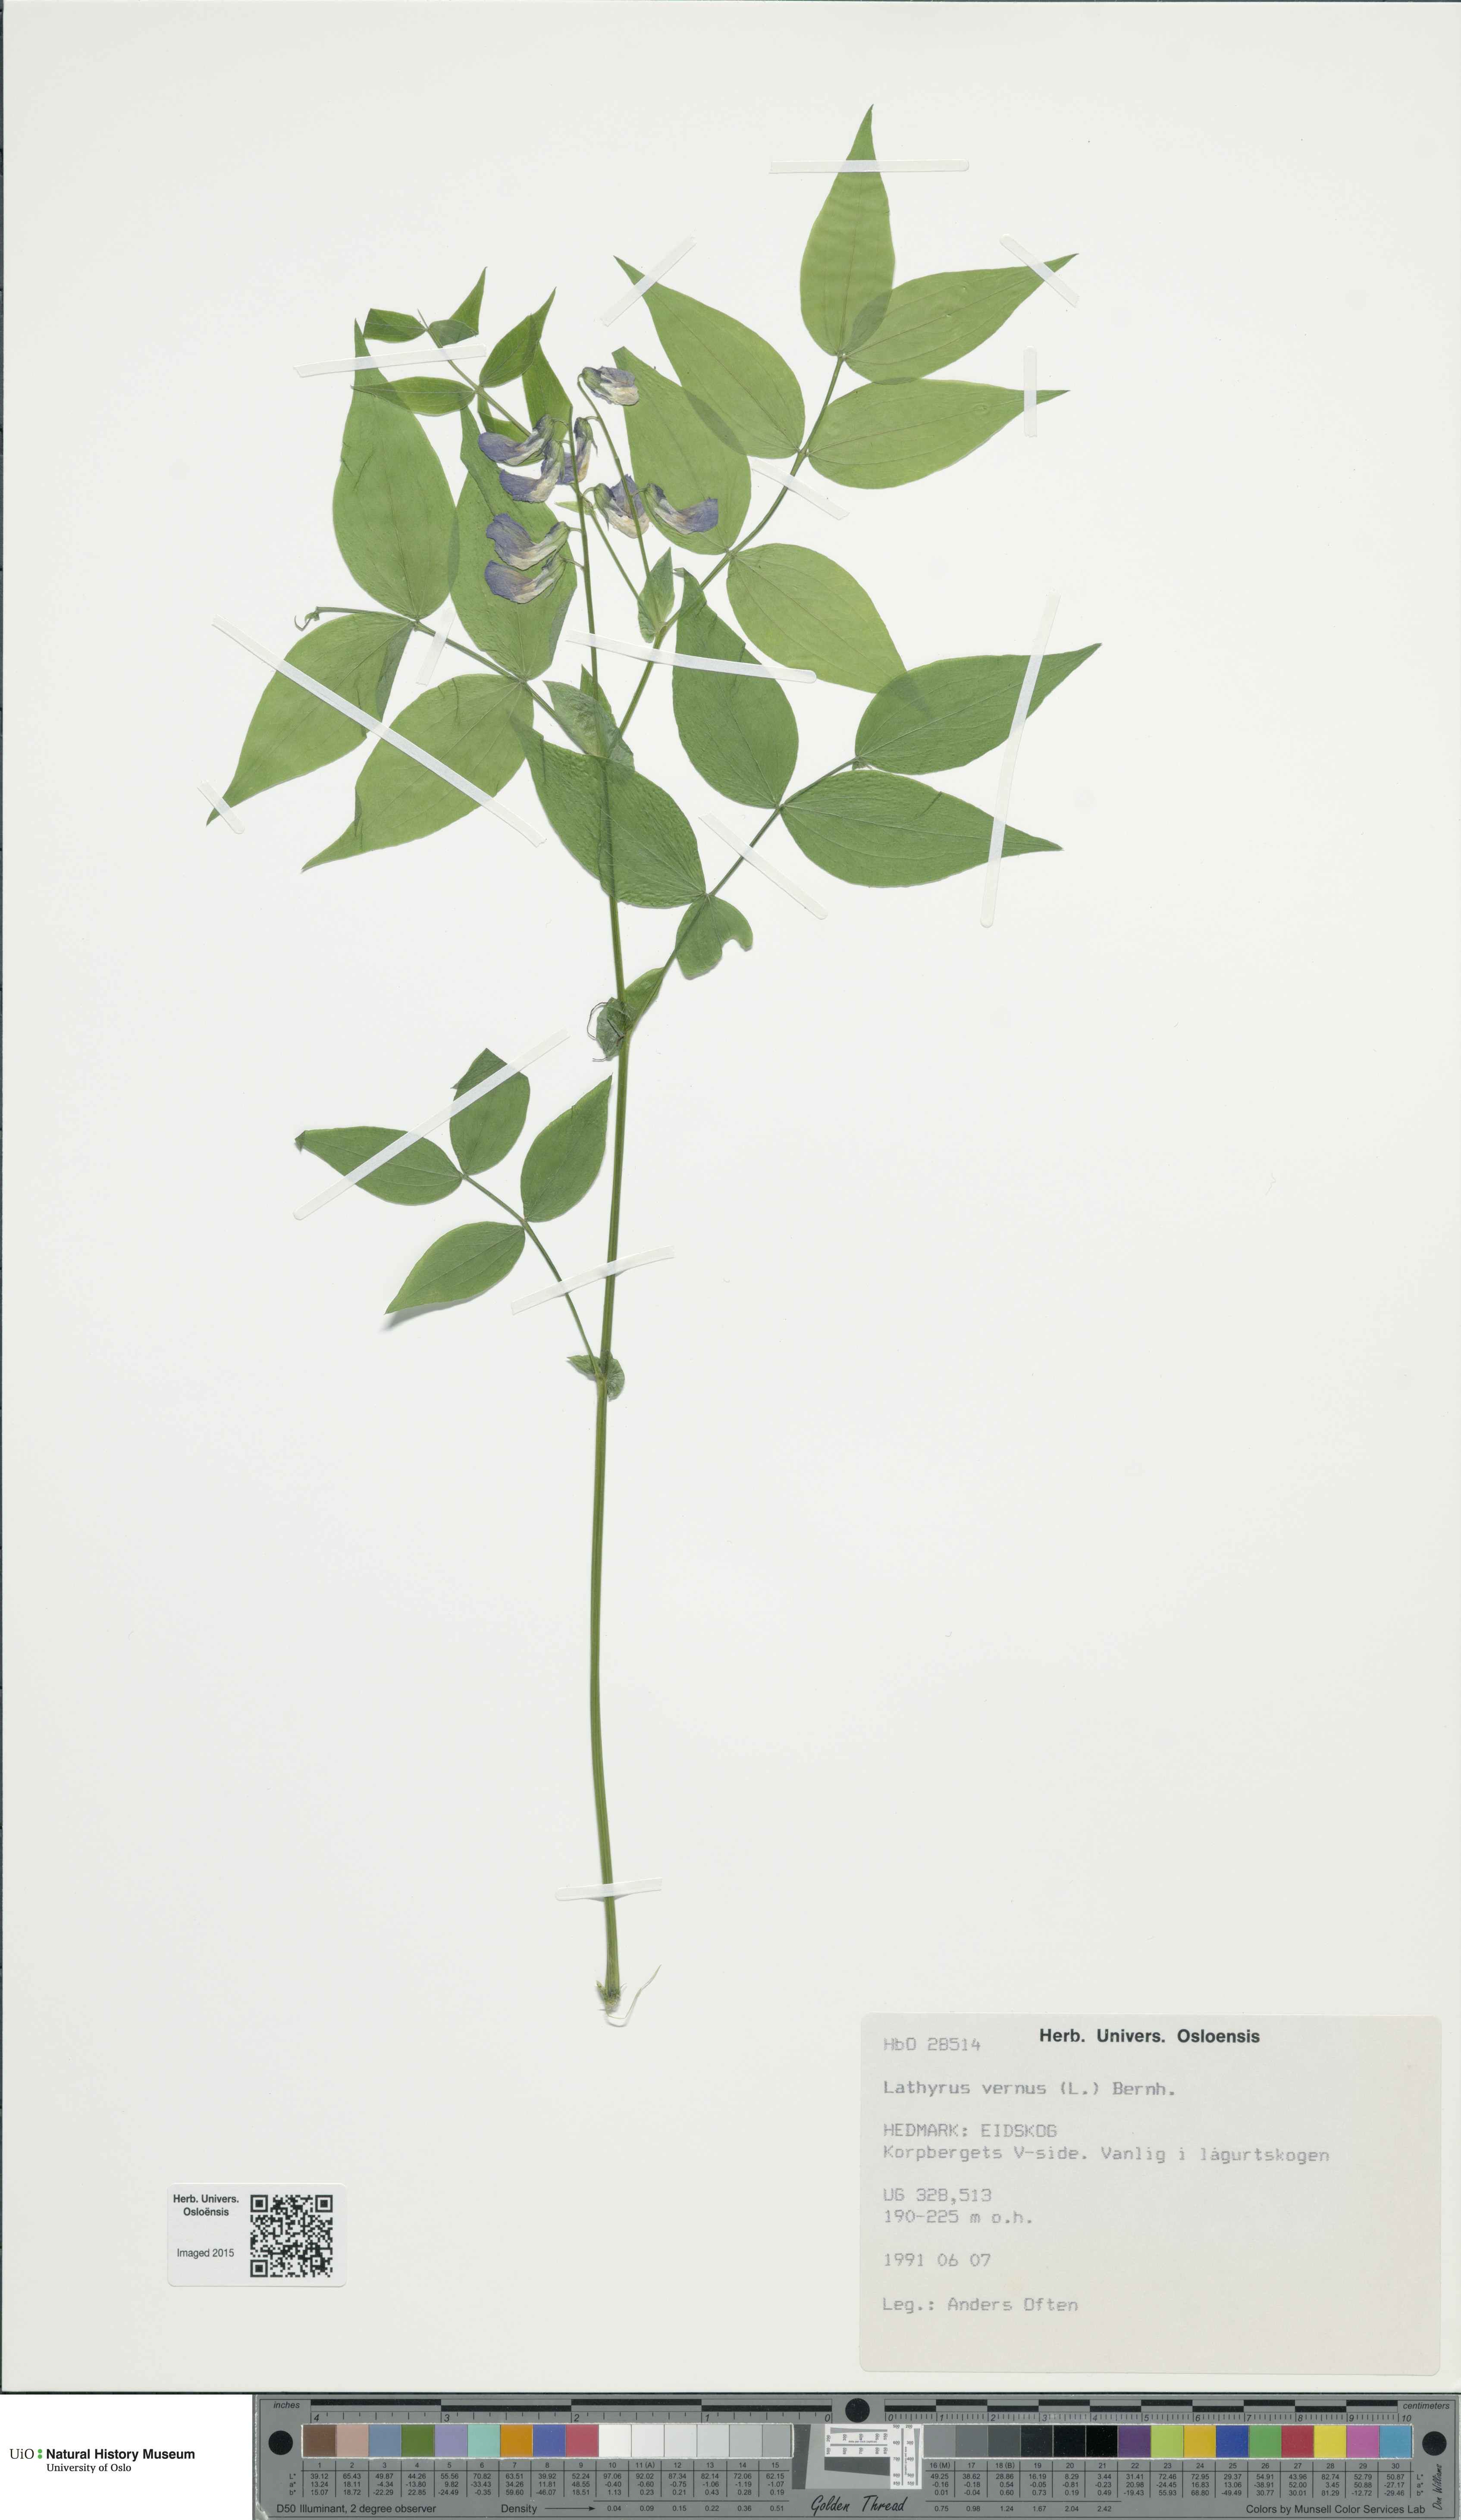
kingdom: Plantae
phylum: Tracheophyta
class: Magnoliopsida
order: Fabales
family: Fabaceae
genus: Lathyrus
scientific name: Lathyrus vernus
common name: Spring pea
